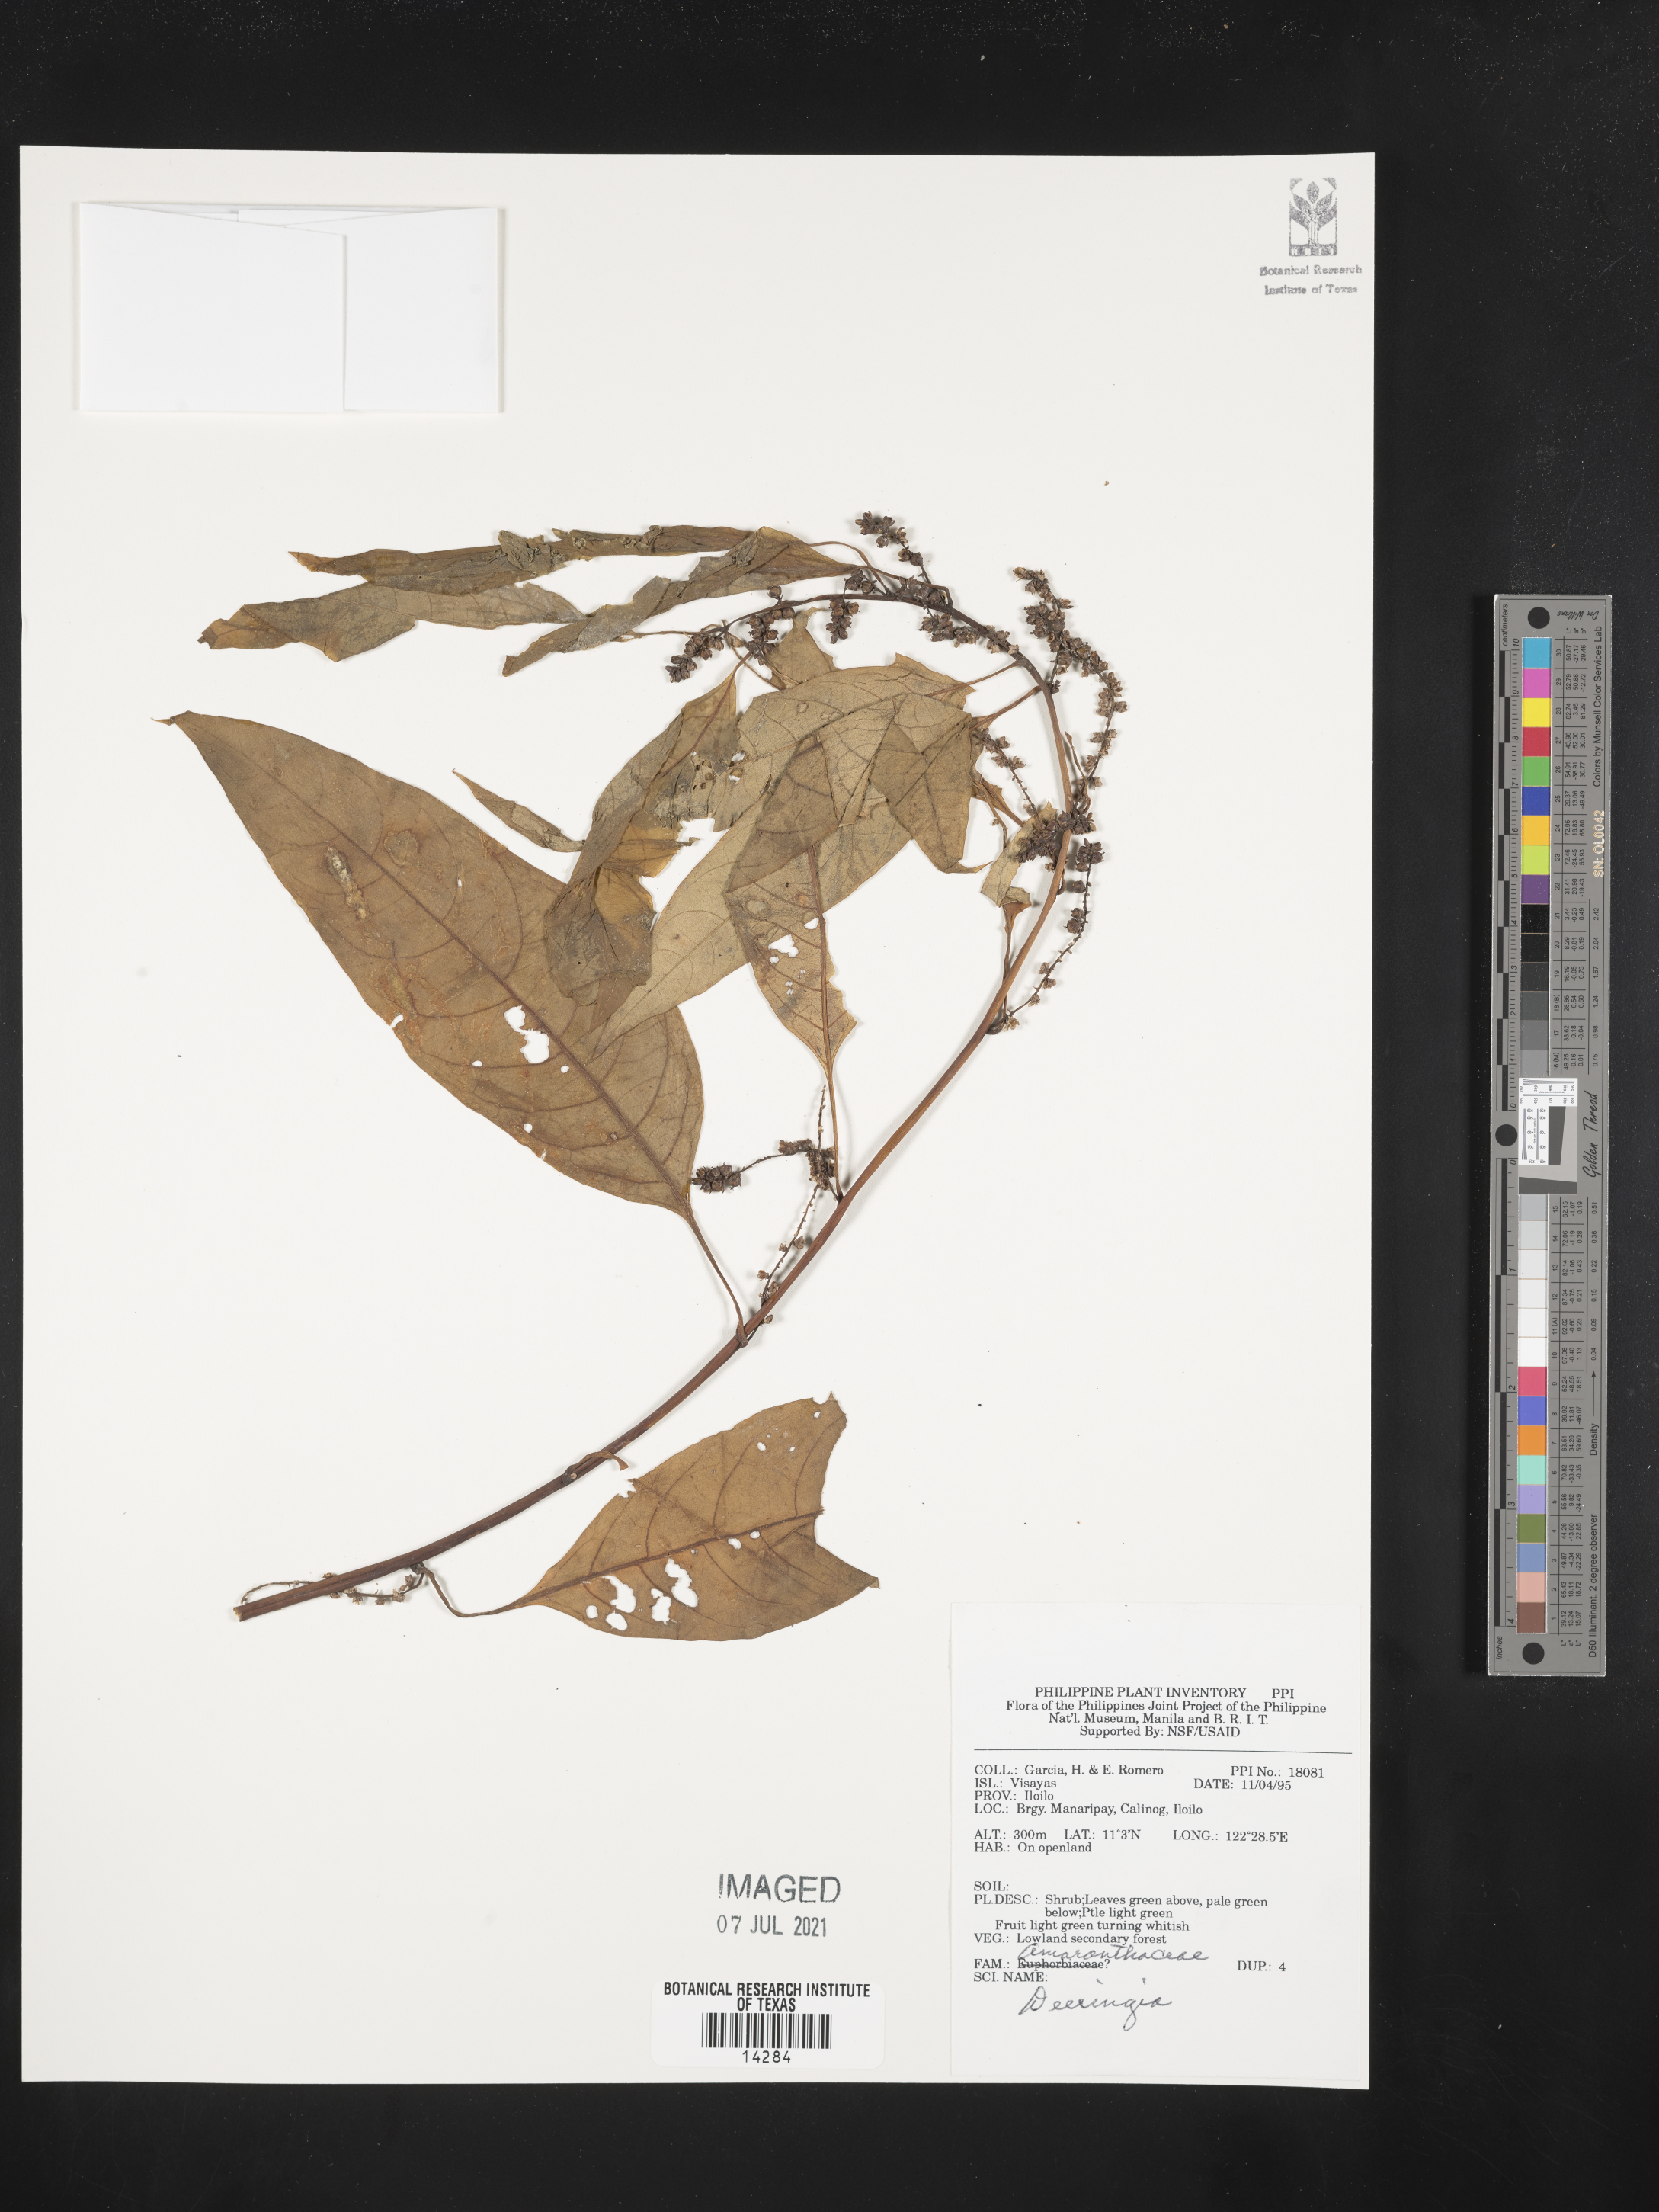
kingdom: Plantae
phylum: Tracheophyta
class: Magnoliopsida
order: Caryophyllales
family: Amaranthaceae
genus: Deeringia
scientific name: Deeringia
